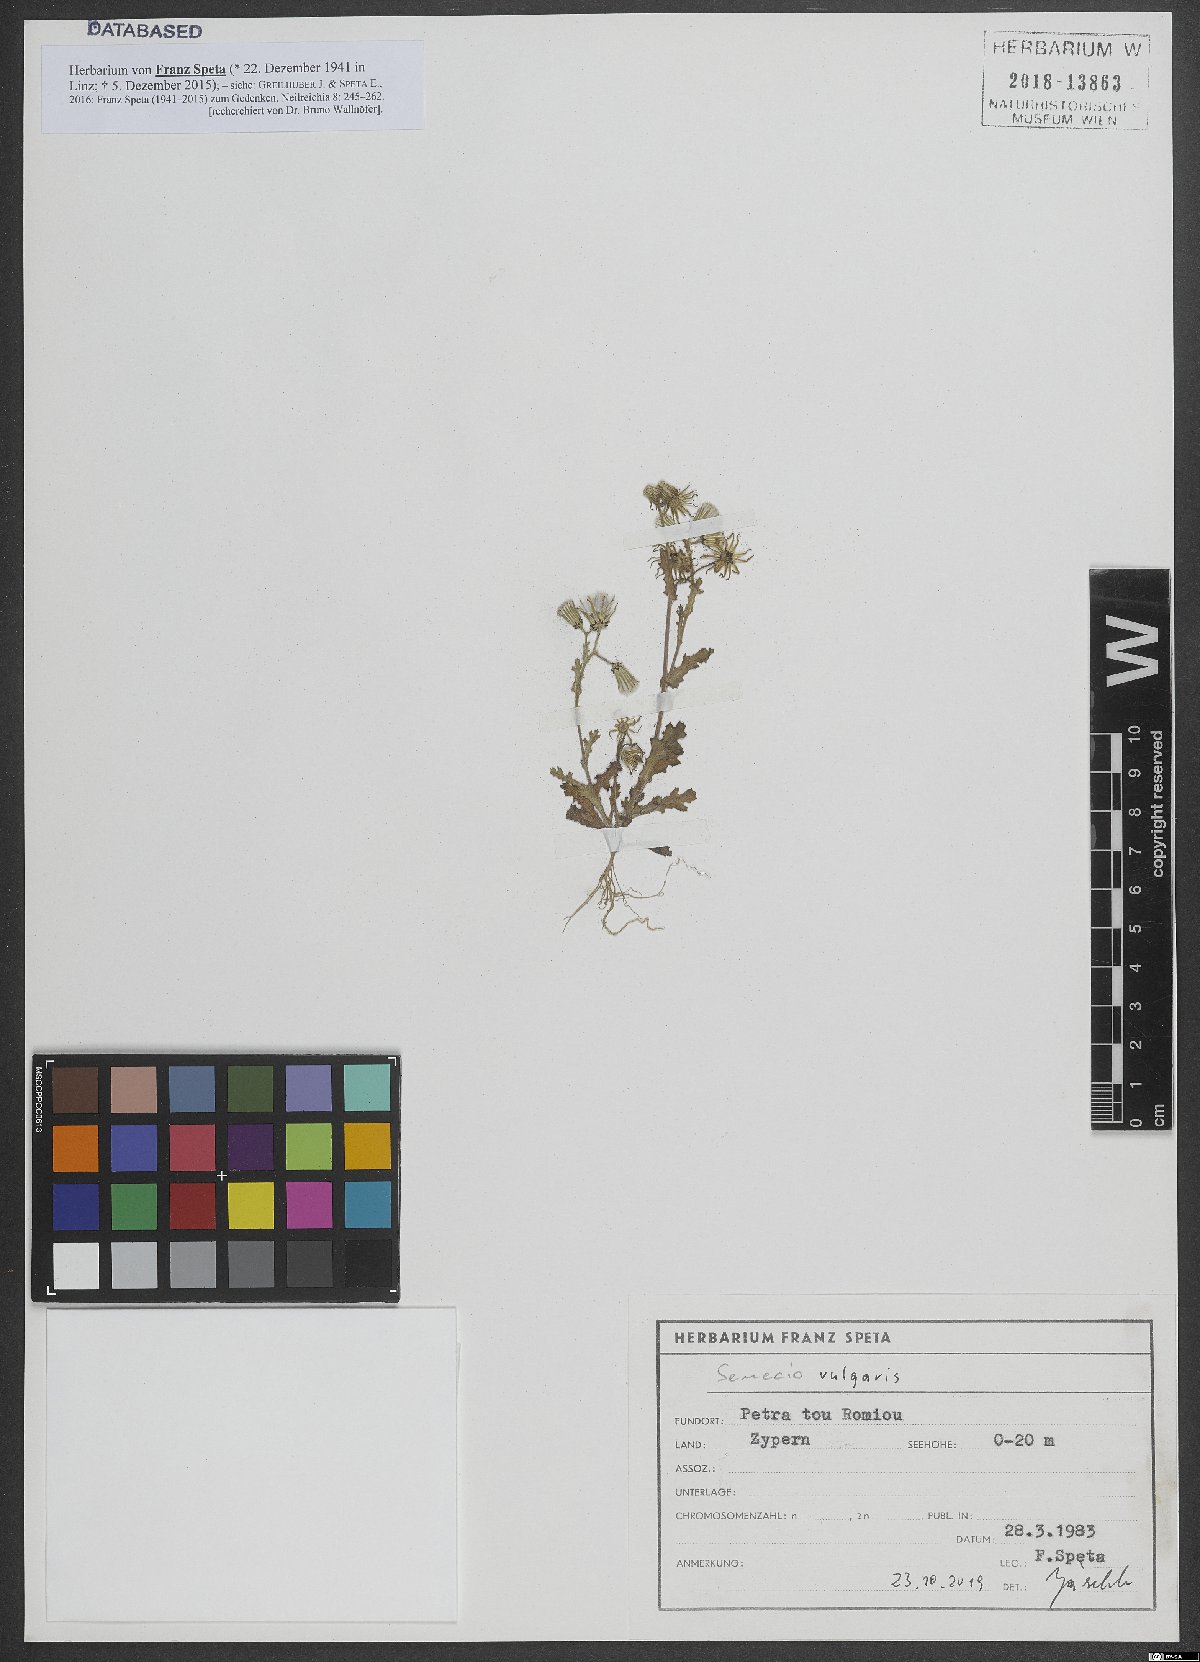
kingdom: Plantae
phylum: Tracheophyta
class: Magnoliopsida
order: Asterales
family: Asteraceae
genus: Senecio
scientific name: Senecio vulgaris
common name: Old-man-in-the-spring
